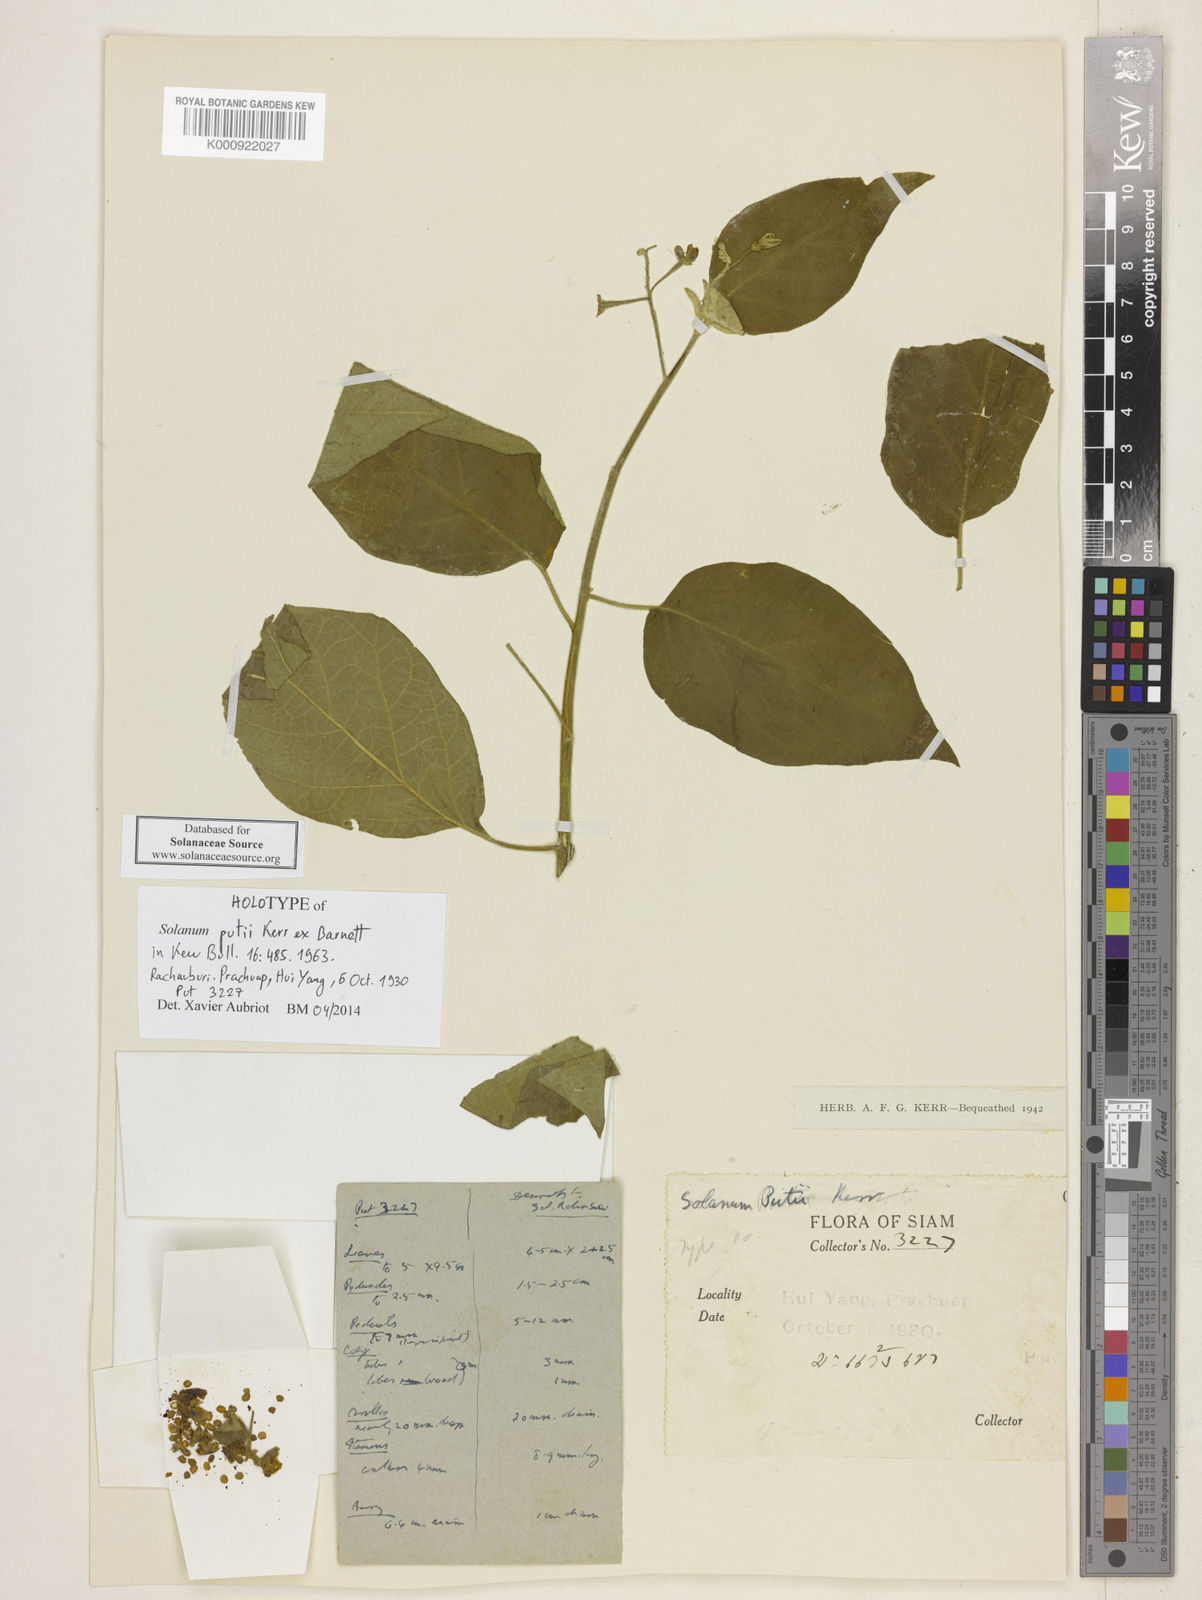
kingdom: Plantae
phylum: Tracheophyta
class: Magnoliopsida
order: Solanales
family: Solanaceae
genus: Solanum
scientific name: Solanum putii
